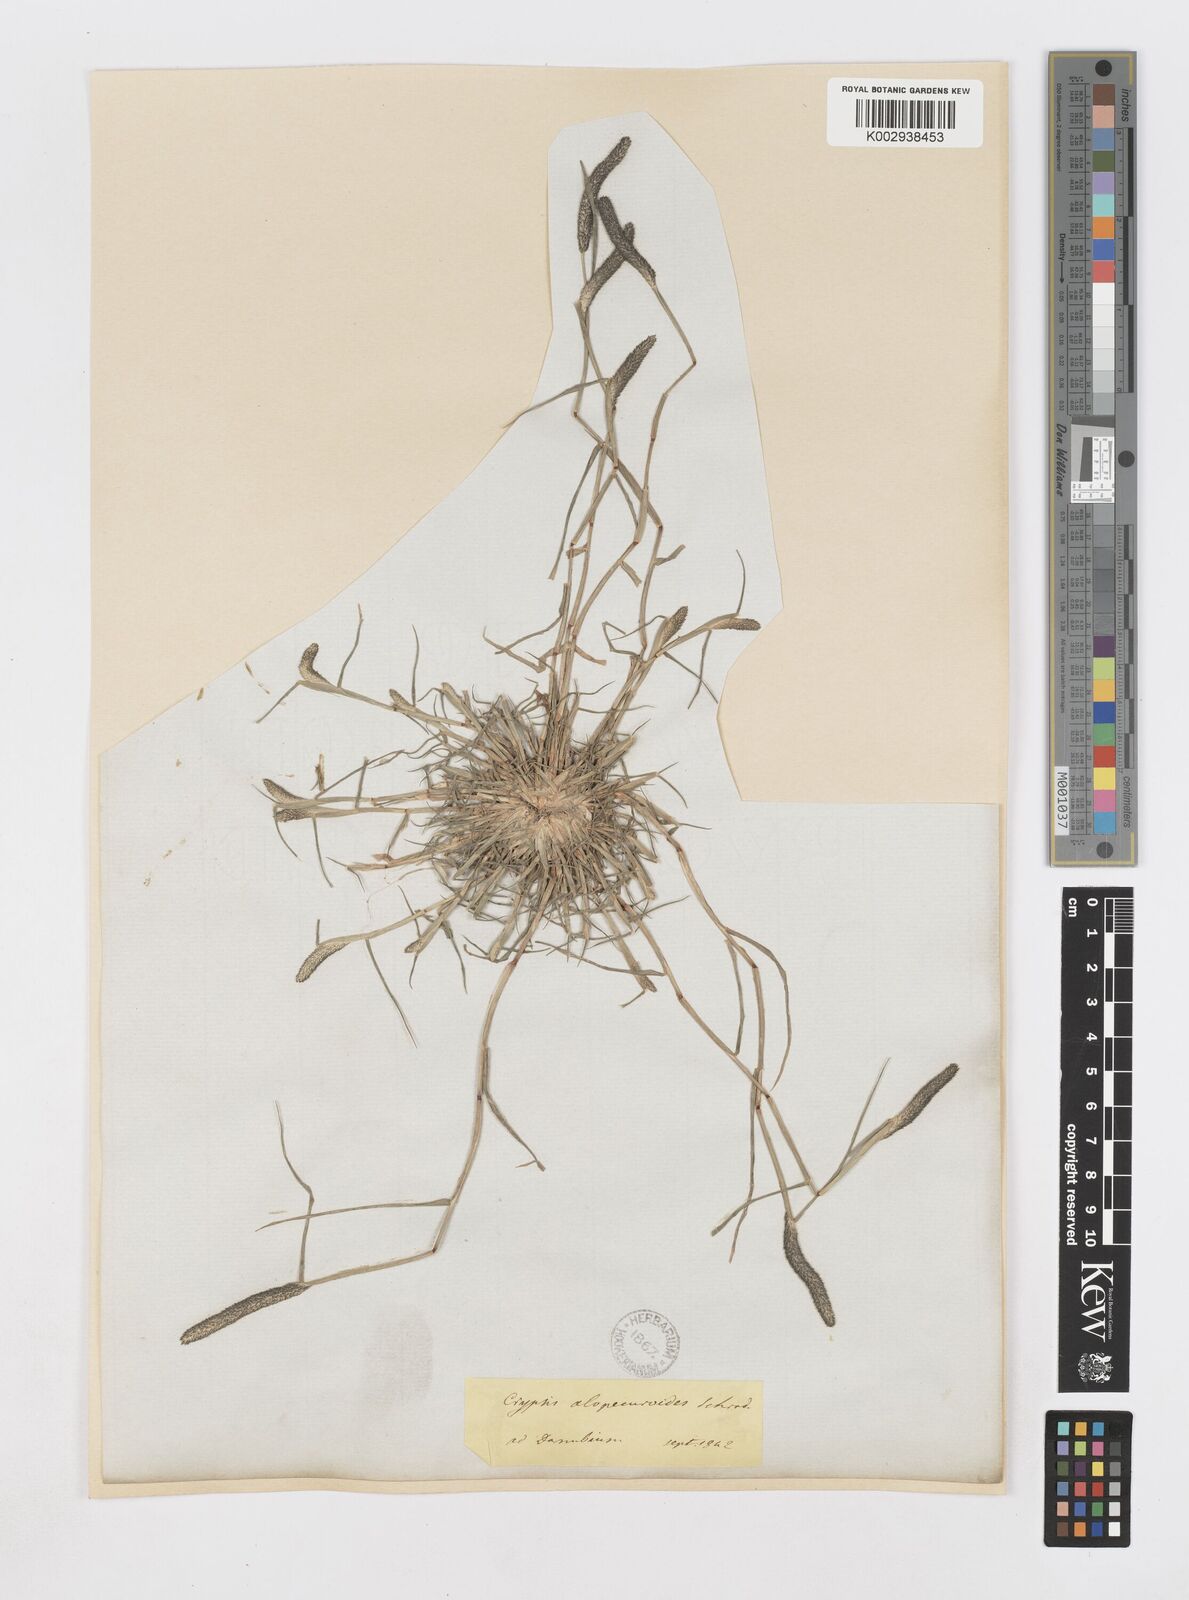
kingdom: Plantae
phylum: Tracheophyta
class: Liliopsida
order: Poales
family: Poaceae
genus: Sporobolus
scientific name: Sporobolus alopecuroides
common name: Foxtail pricklegrass
